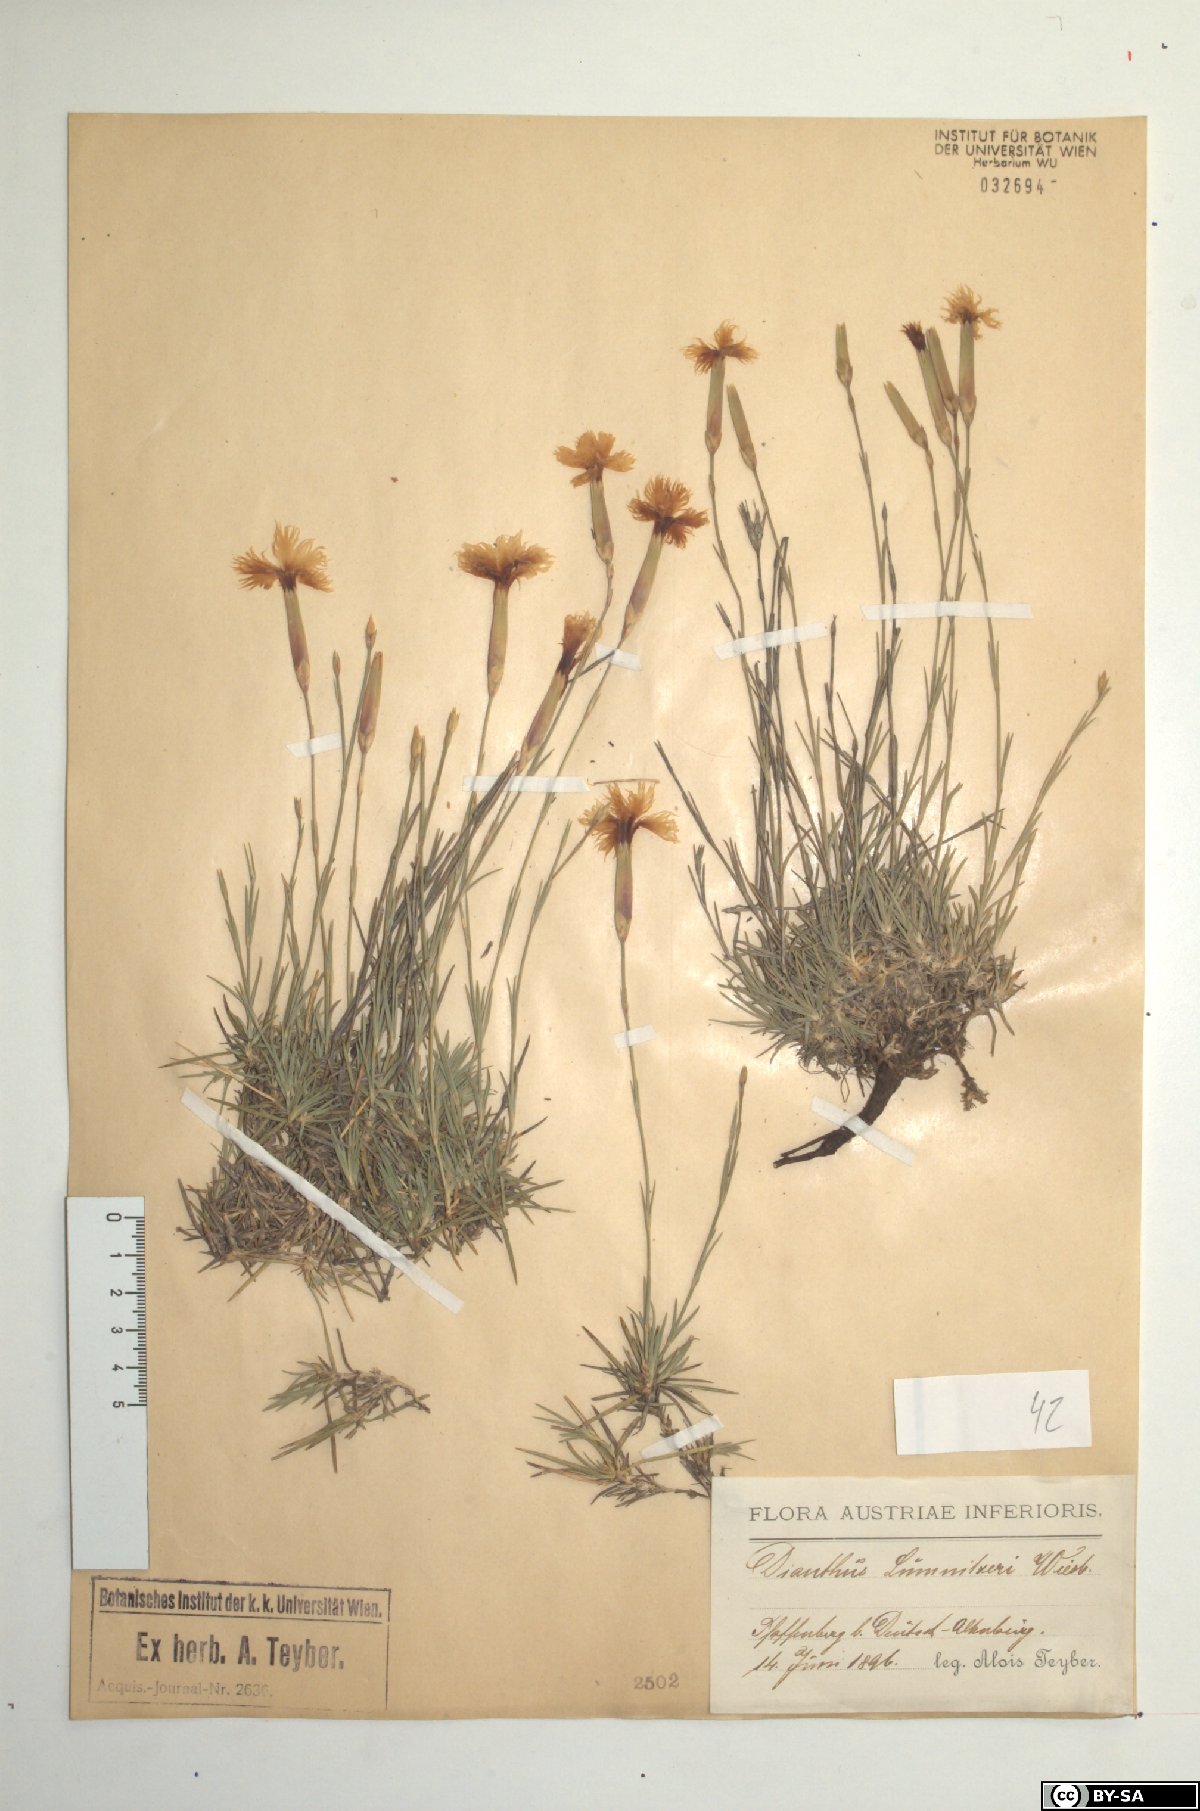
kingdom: Plantae
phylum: Tracheophyta
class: Magnoliopsida
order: Caryophyllales
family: Caryophyllaceae
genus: Dianthus
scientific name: Dianthus praecox
